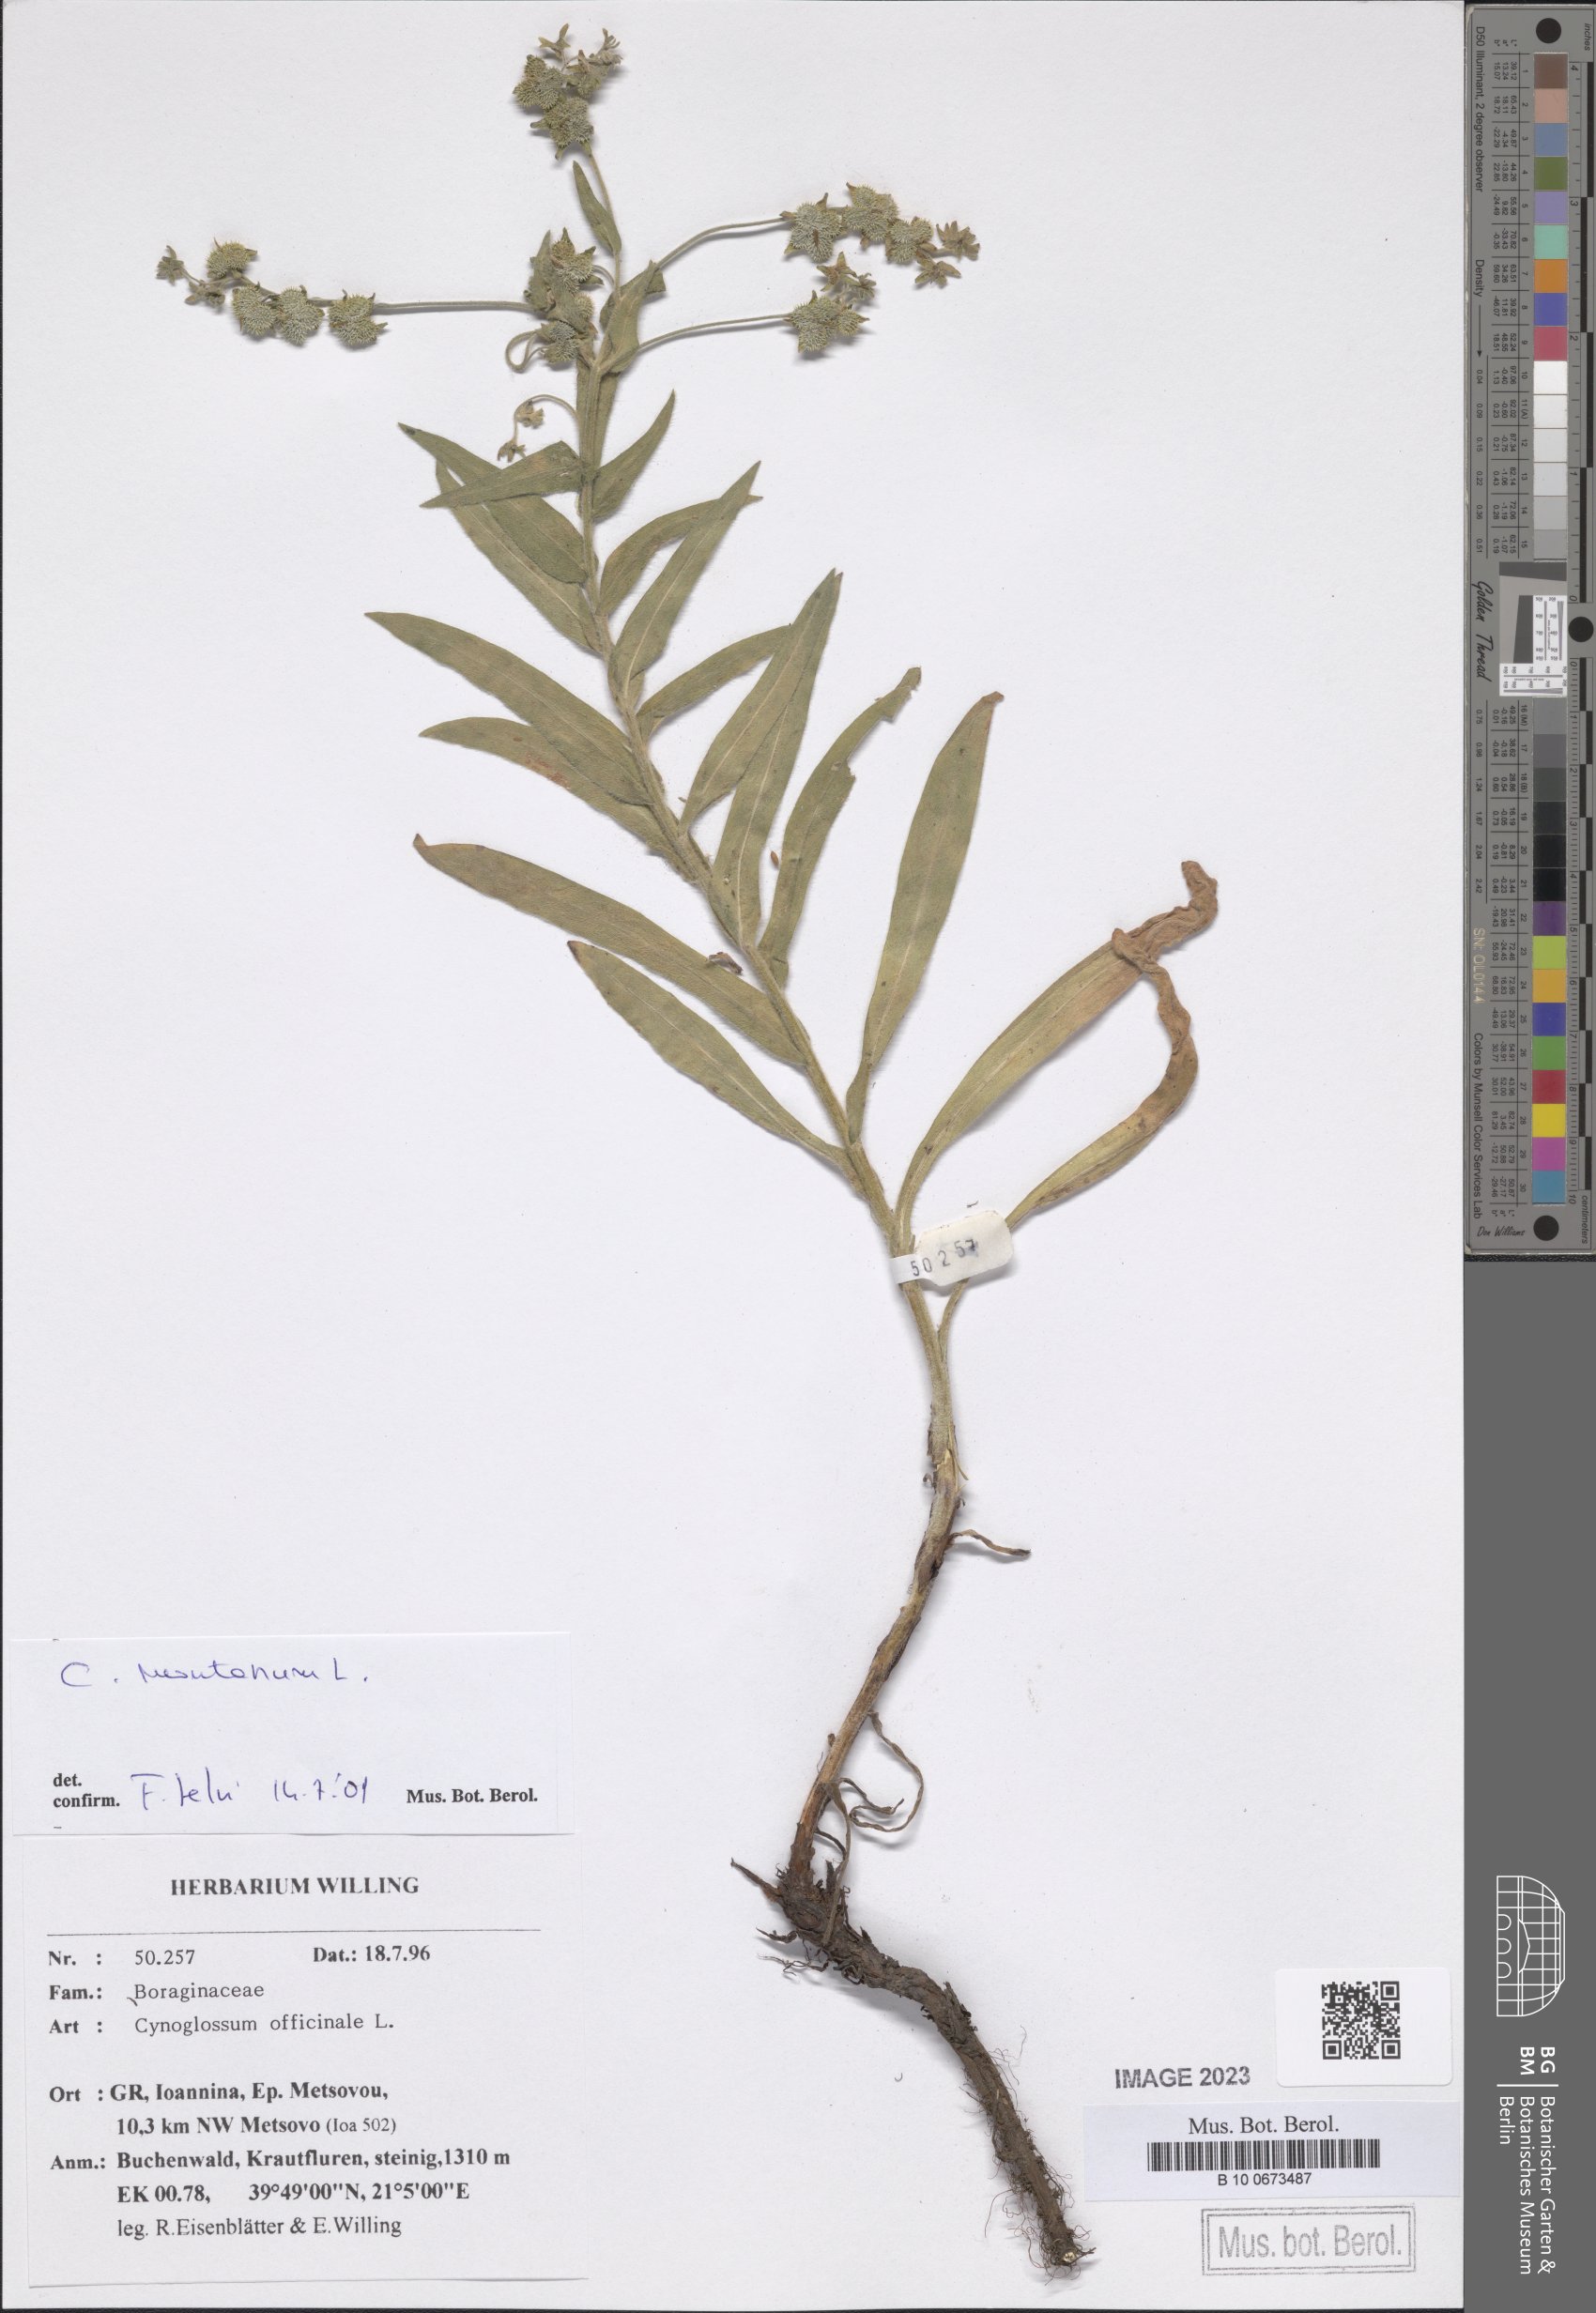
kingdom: Plantae
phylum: Tracheophyta
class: Magnoliopsida
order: Boraginales
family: Boraginaceae
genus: Cynoglossum
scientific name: Cynoglossum montanum
